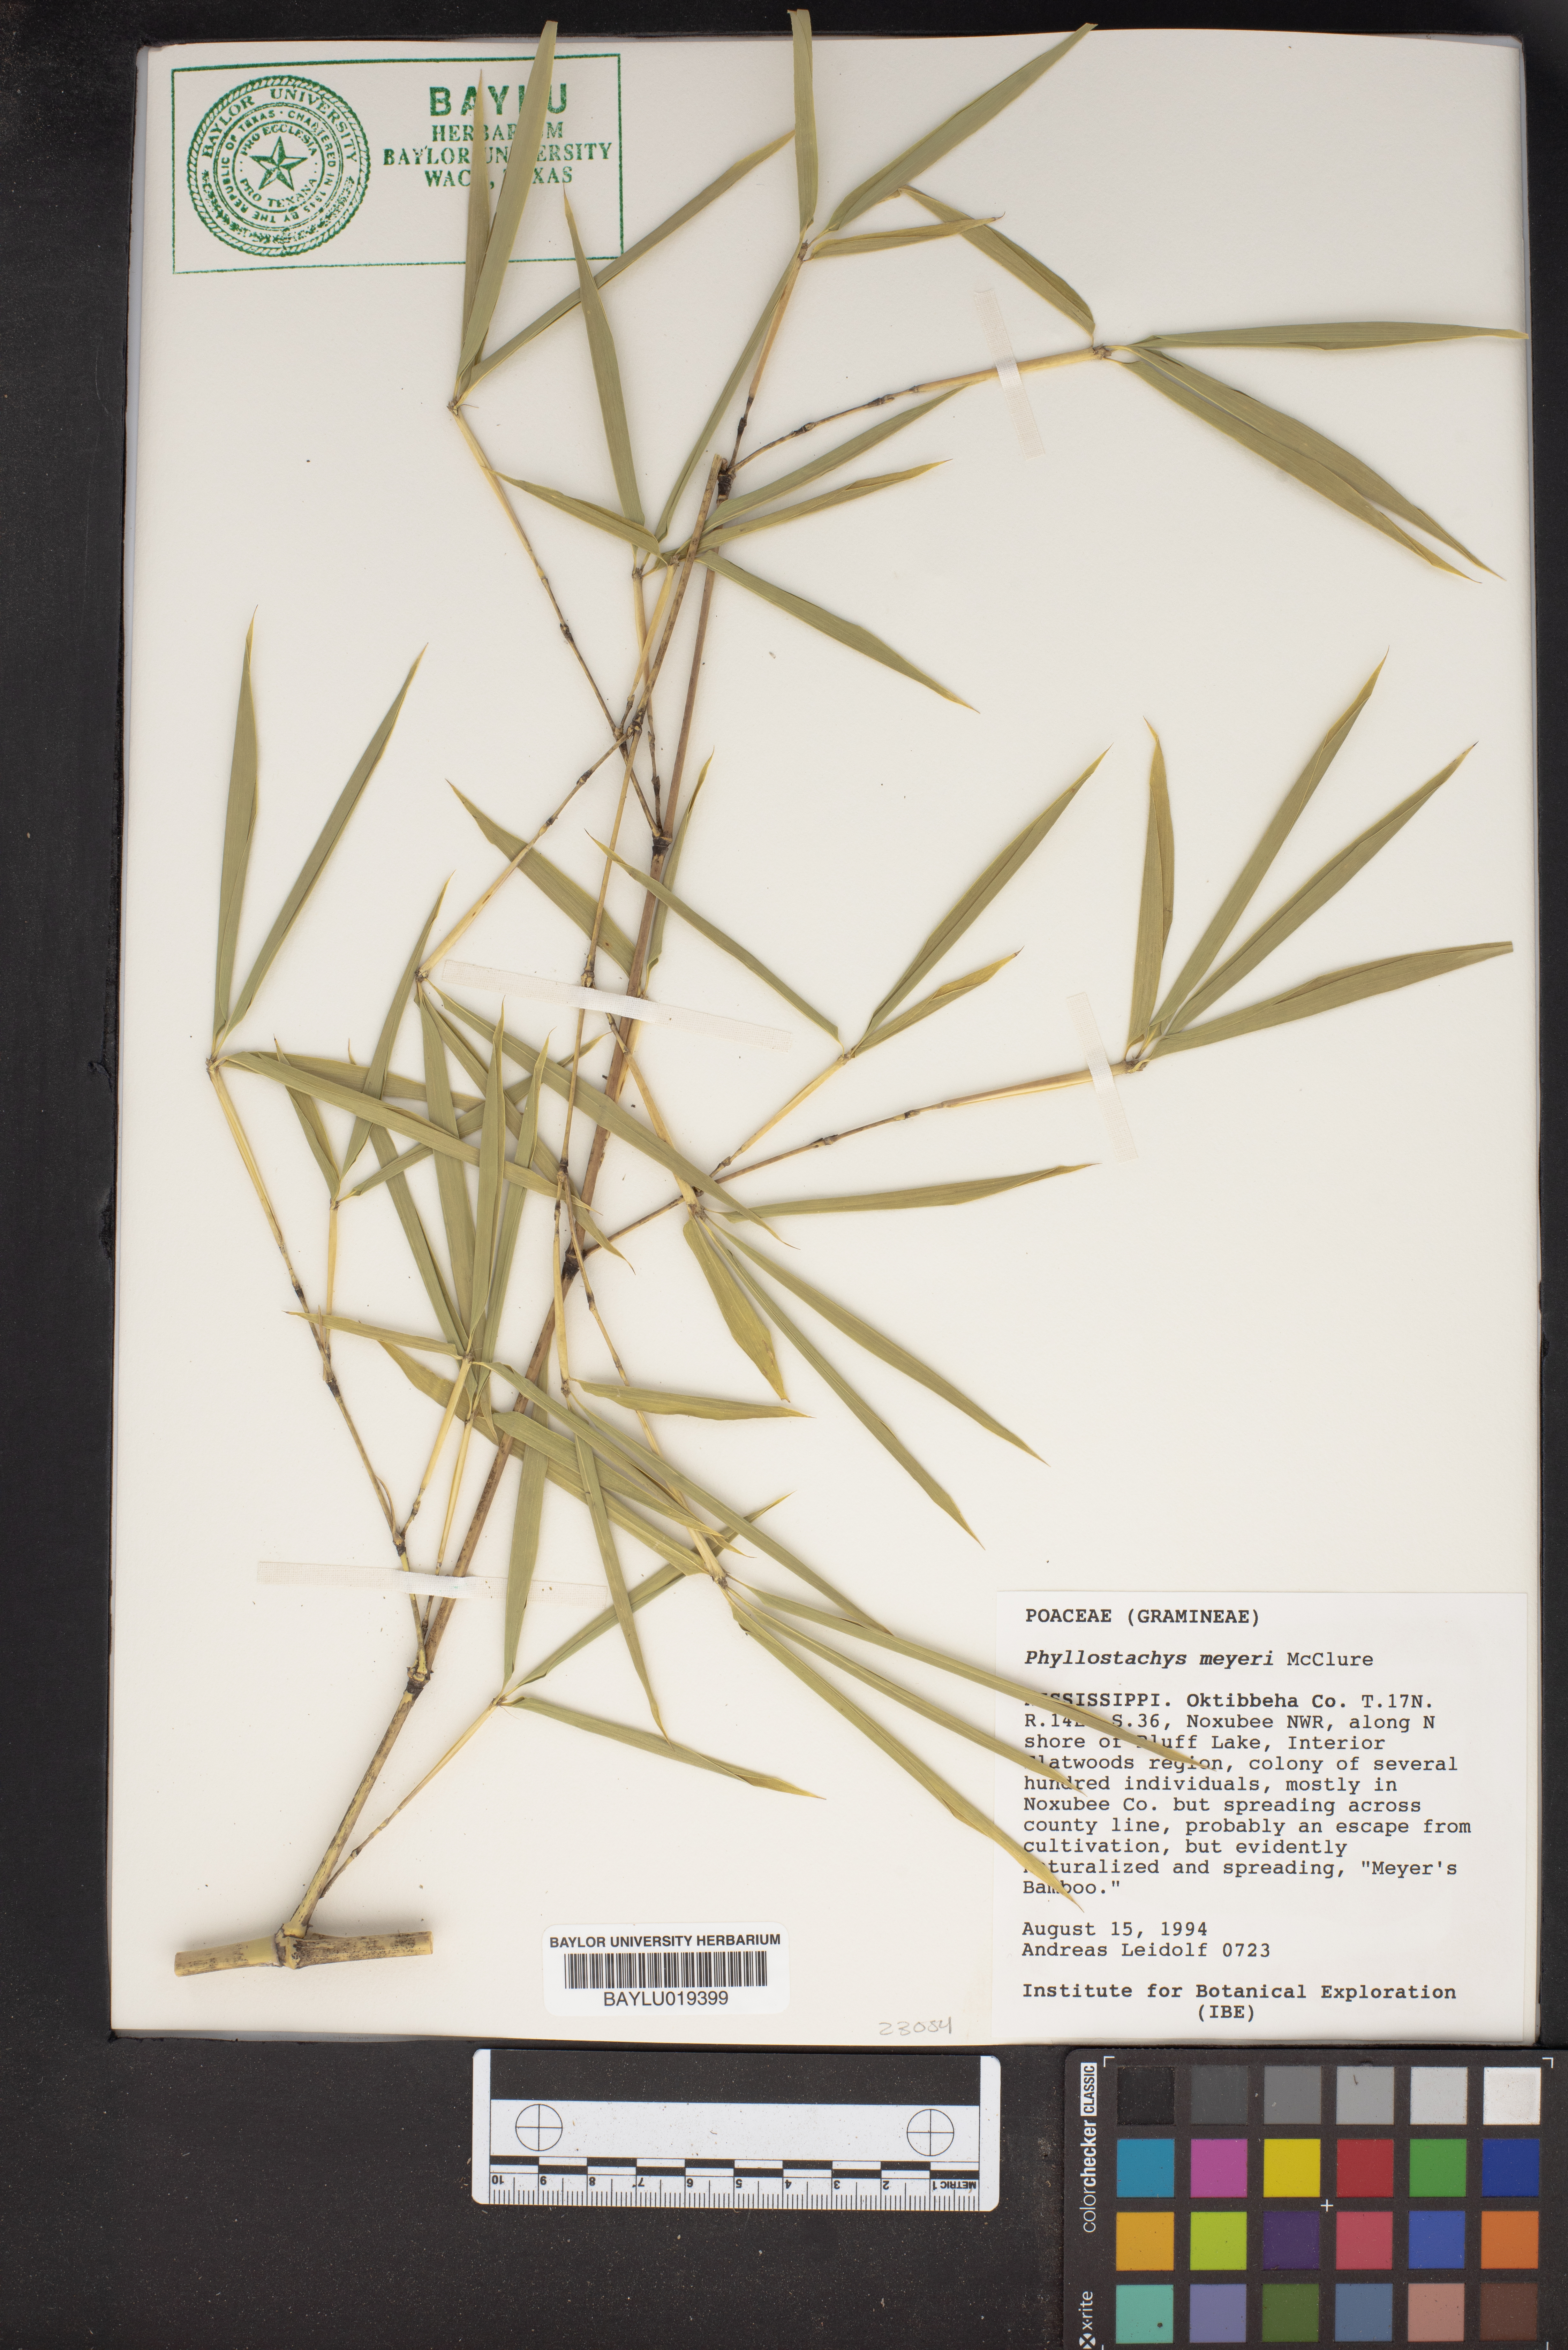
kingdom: Plantae
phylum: Tracheophyta
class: Liliopsida
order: Poales
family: Poaceae
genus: Phyllostachys
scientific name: Phyllostachys meyeri
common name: Meyer's bamboo
